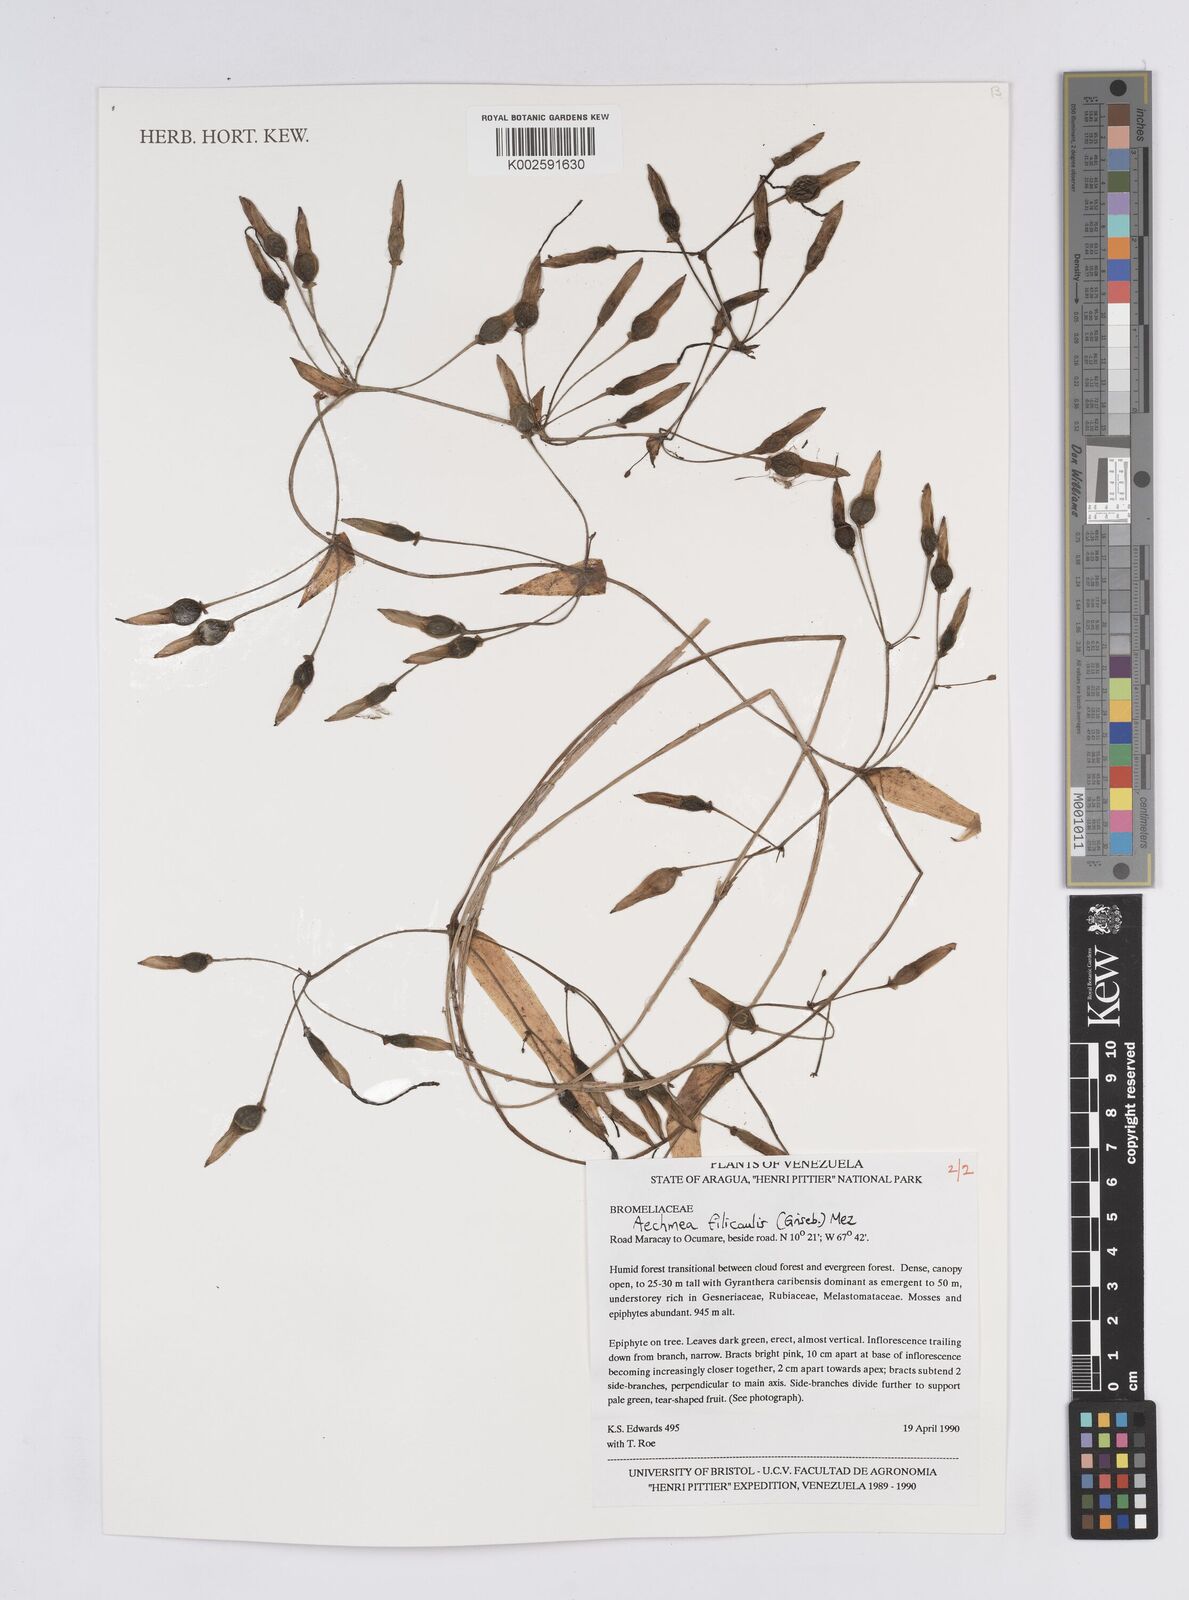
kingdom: Plantae
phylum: Tracheophyta
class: Liliopsida
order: Poales
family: Bromeliaceae
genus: Aechmea
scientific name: Aechmea filicaulis
